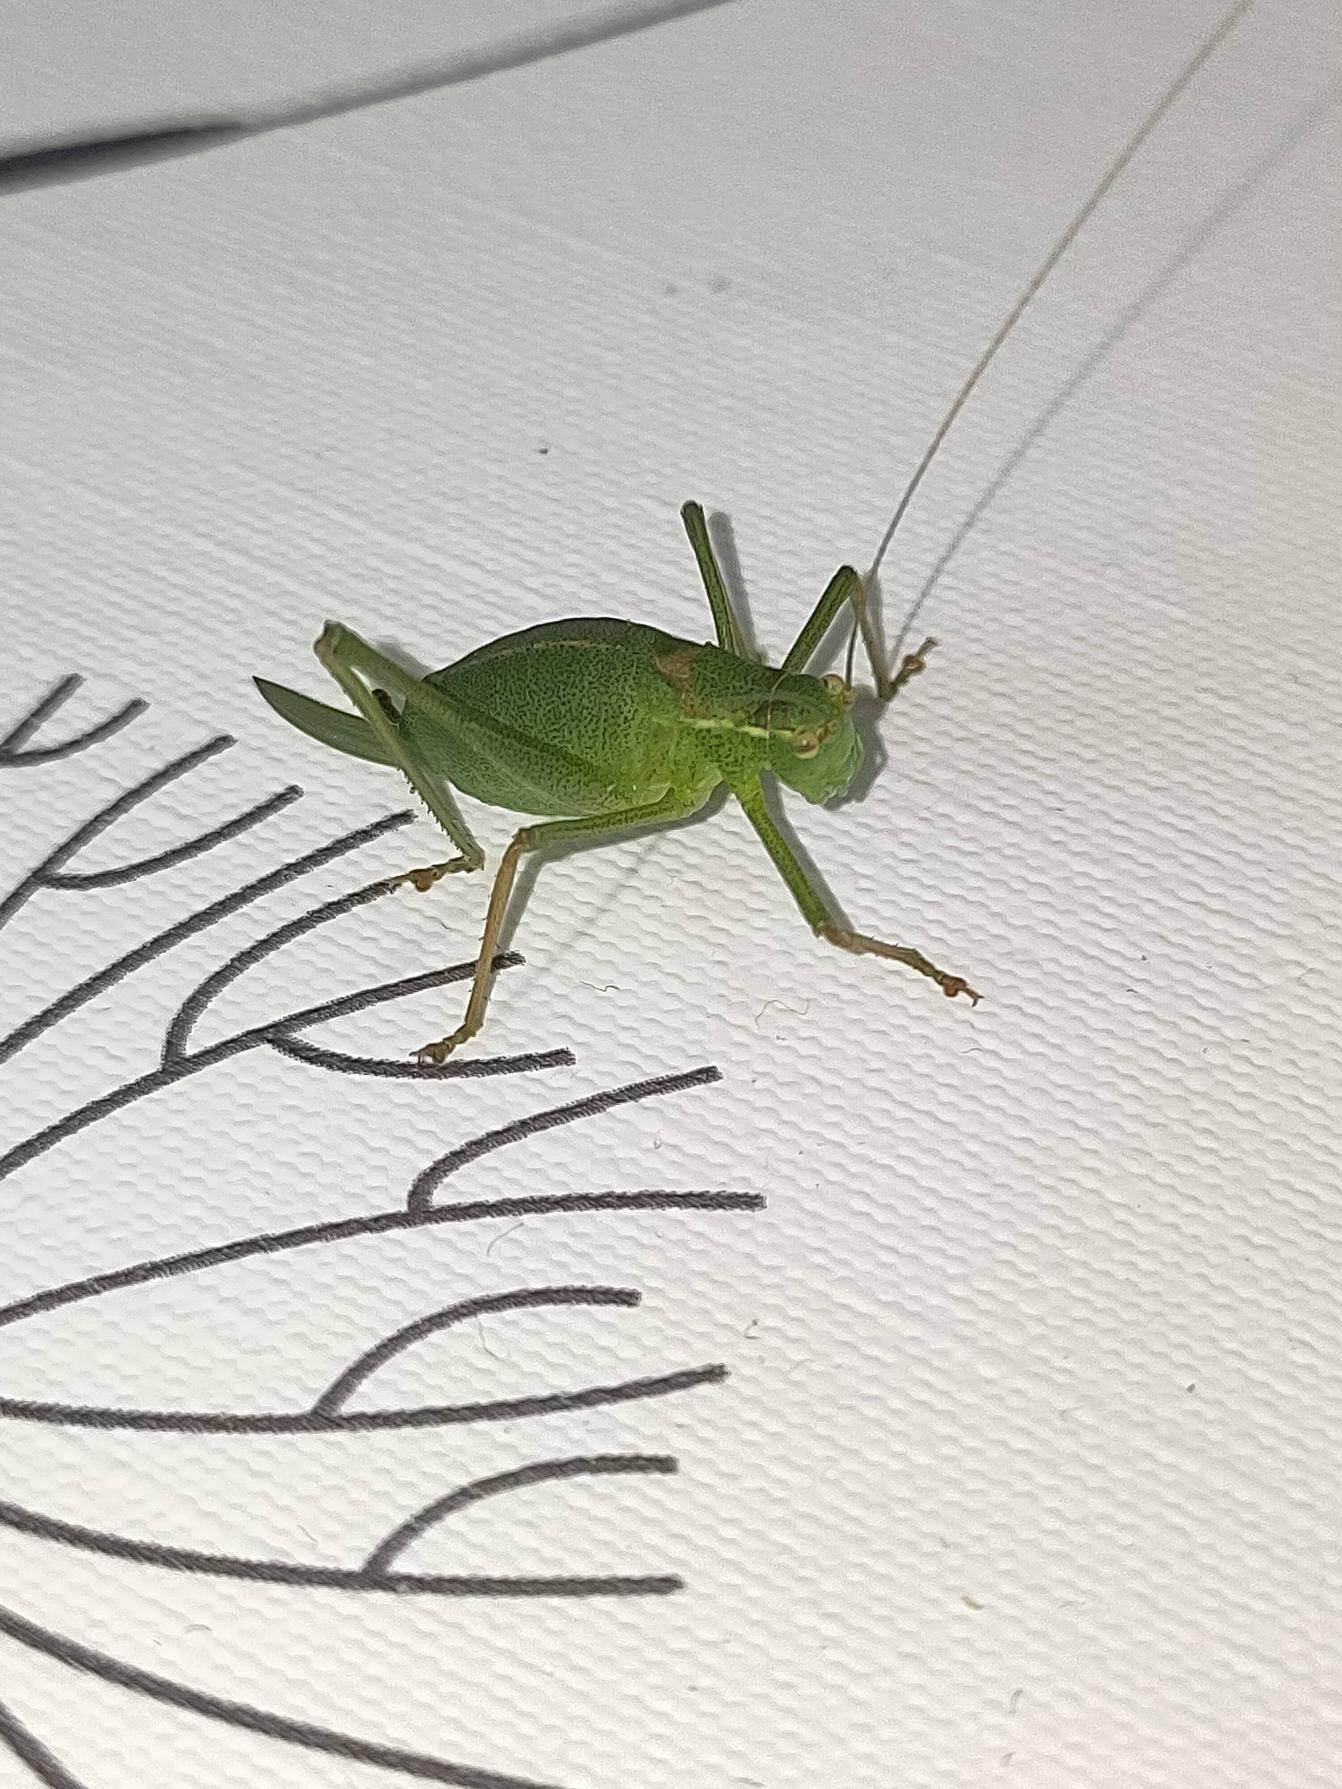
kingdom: Animalia
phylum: Arthropoda
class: Insecta
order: Orthoptera
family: Tettigoniidae
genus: Leptophyes
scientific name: Leptophyes punctatissima
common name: Krumknivgræshoppe
